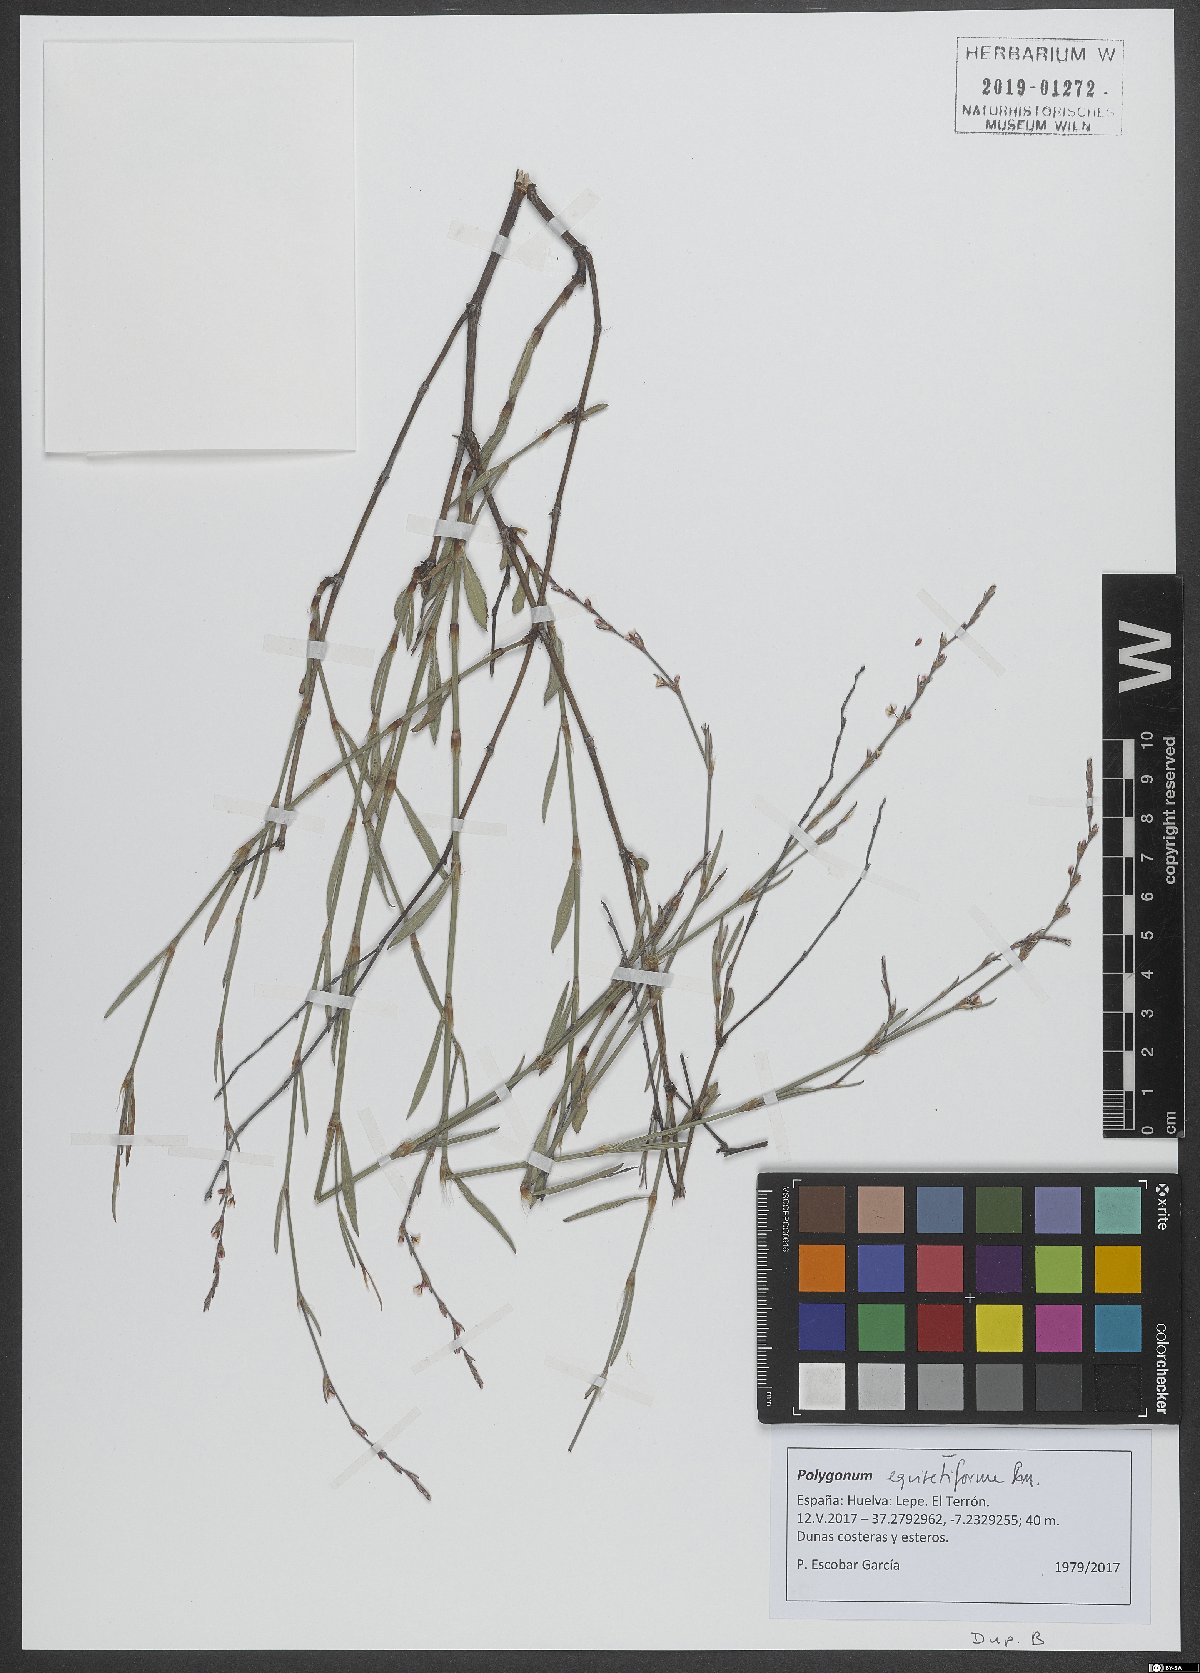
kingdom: Plantae
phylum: Tracheophyta
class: Magnoliopsida
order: Caryophyllales
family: Polygonaceae
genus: Polygonum
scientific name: Polygonum equisetiforme
